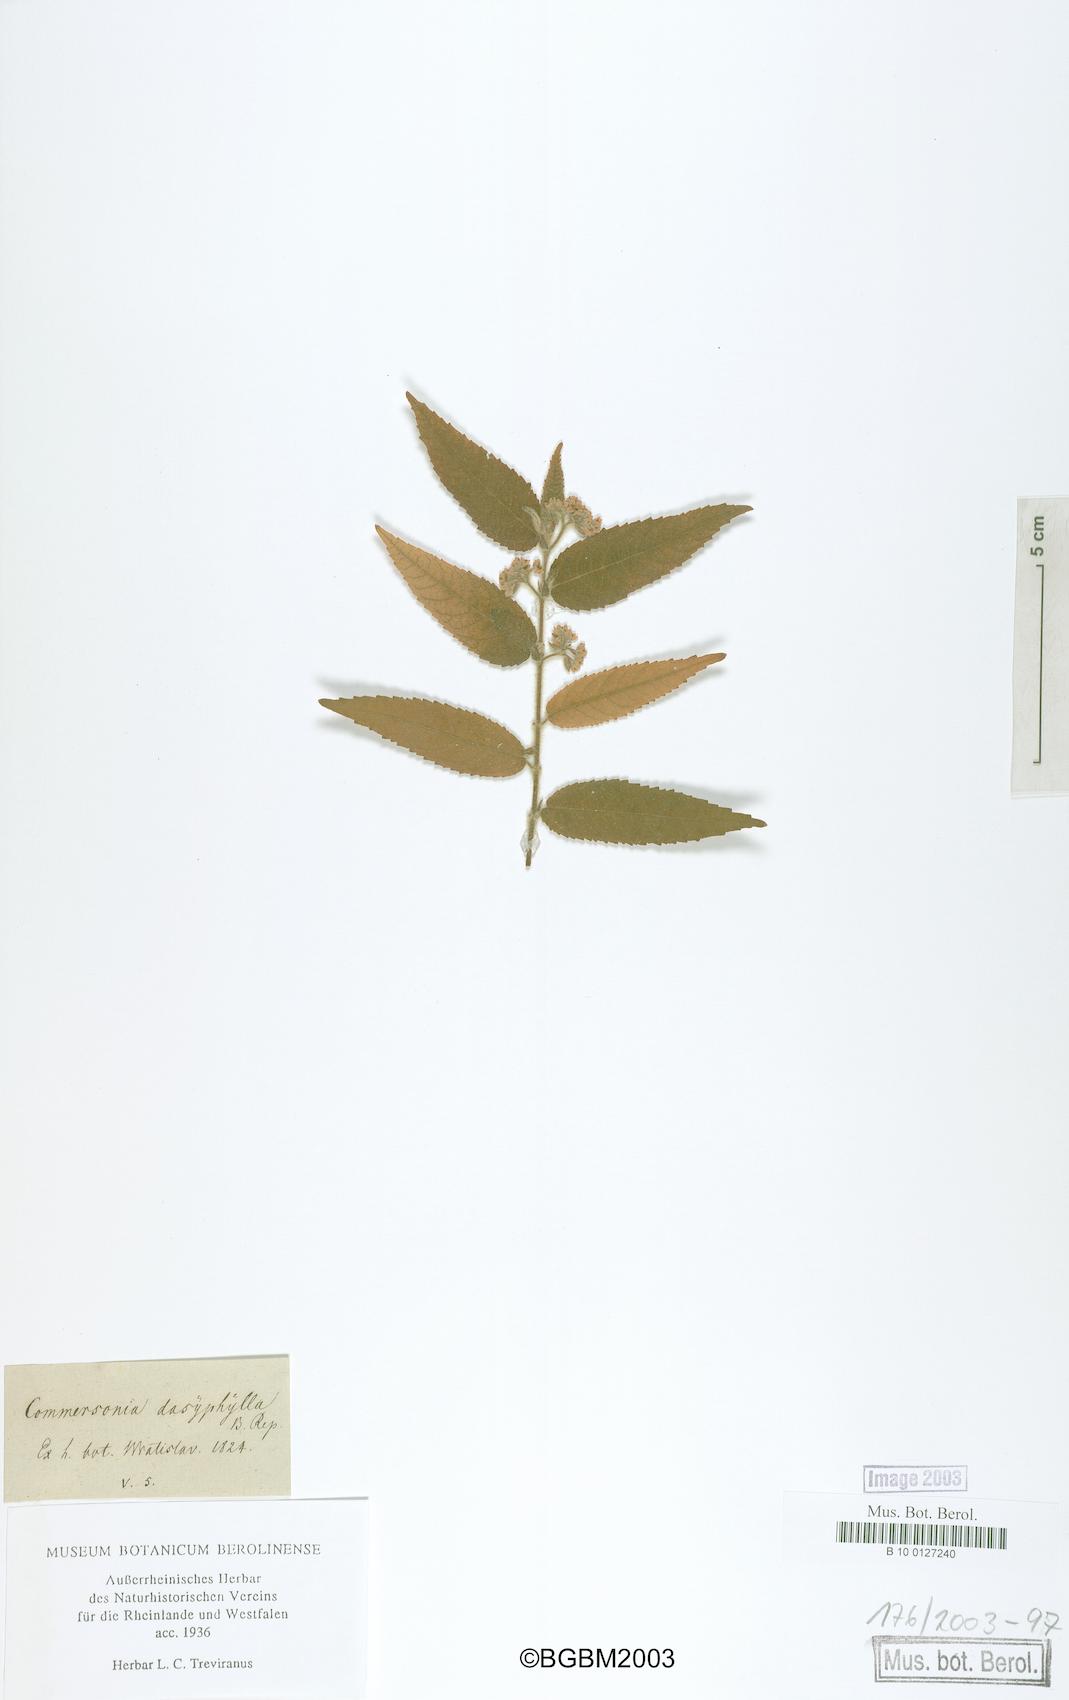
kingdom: Plantae
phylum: Tracheophyta
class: Magnoliopsida
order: Malvales
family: Malvaceae
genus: Commersonia
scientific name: Commersonia dasyphylla
